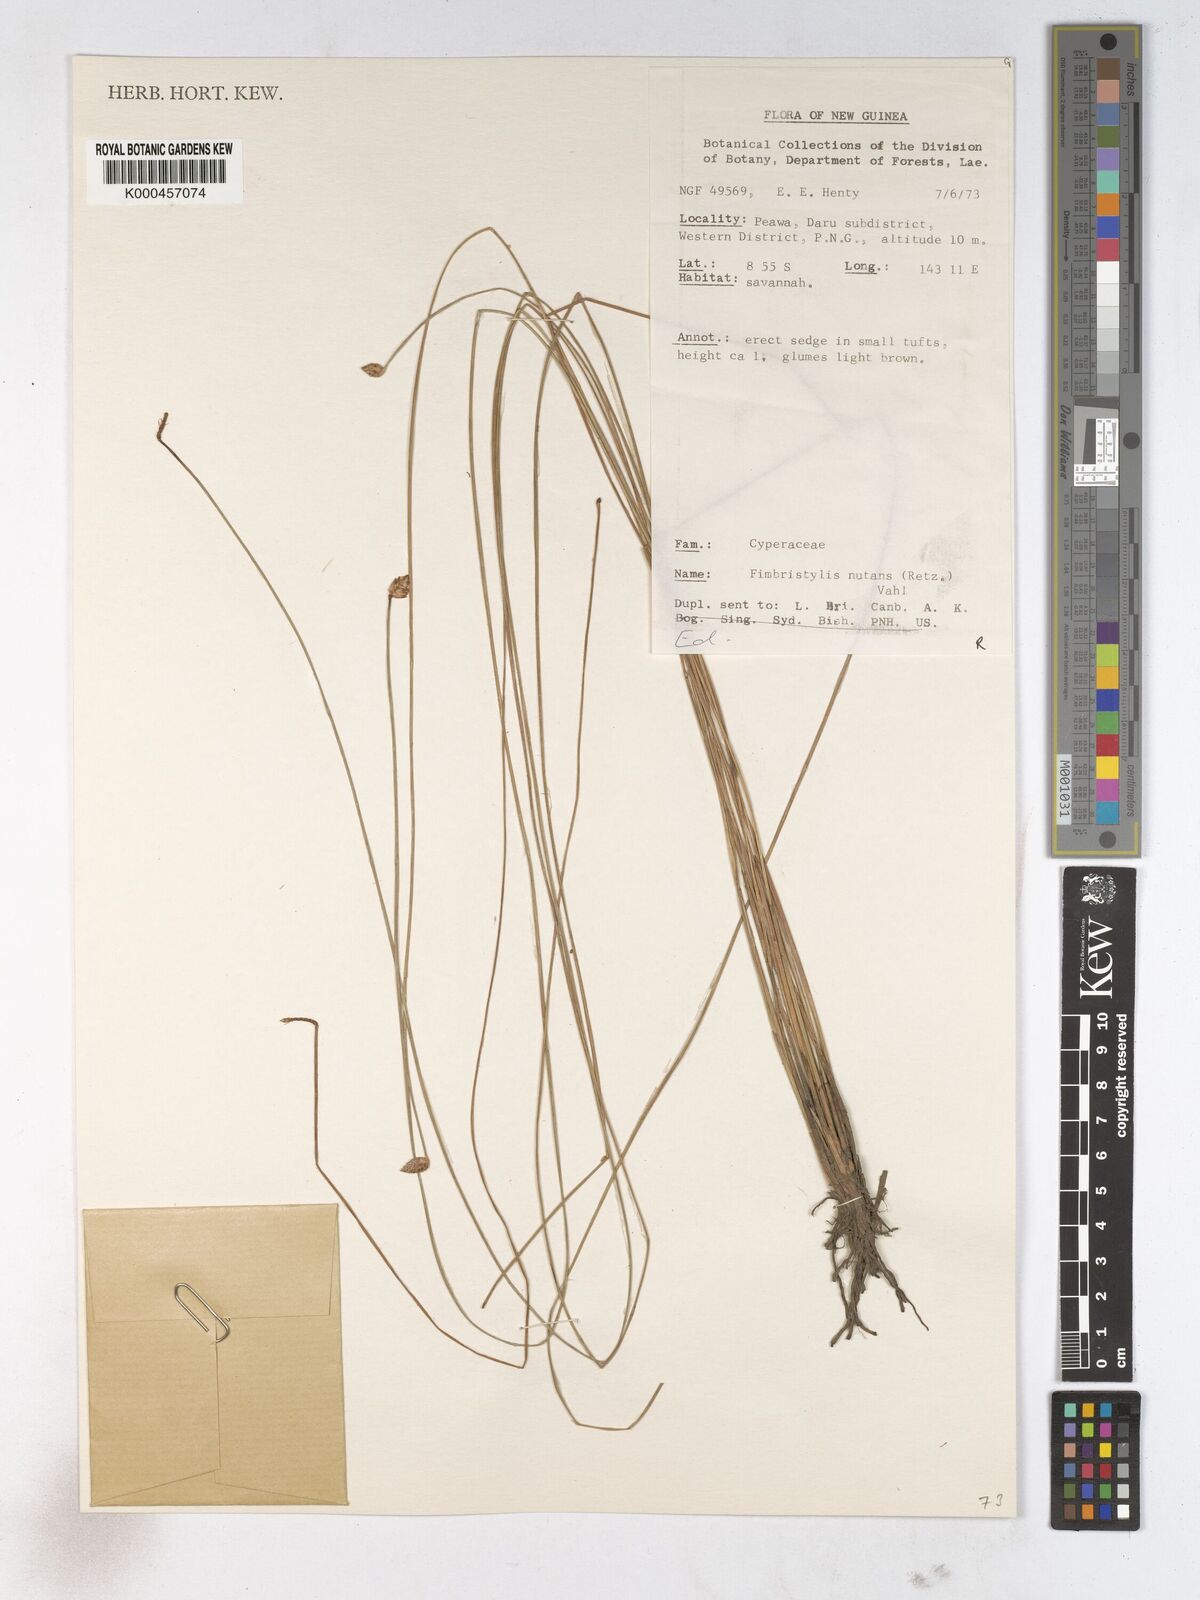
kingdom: Plantae
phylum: Tracheophyta
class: Liliopsida
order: Poales
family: Cyperaceae
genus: Fimbristylis
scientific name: Fimbristylis nutans
